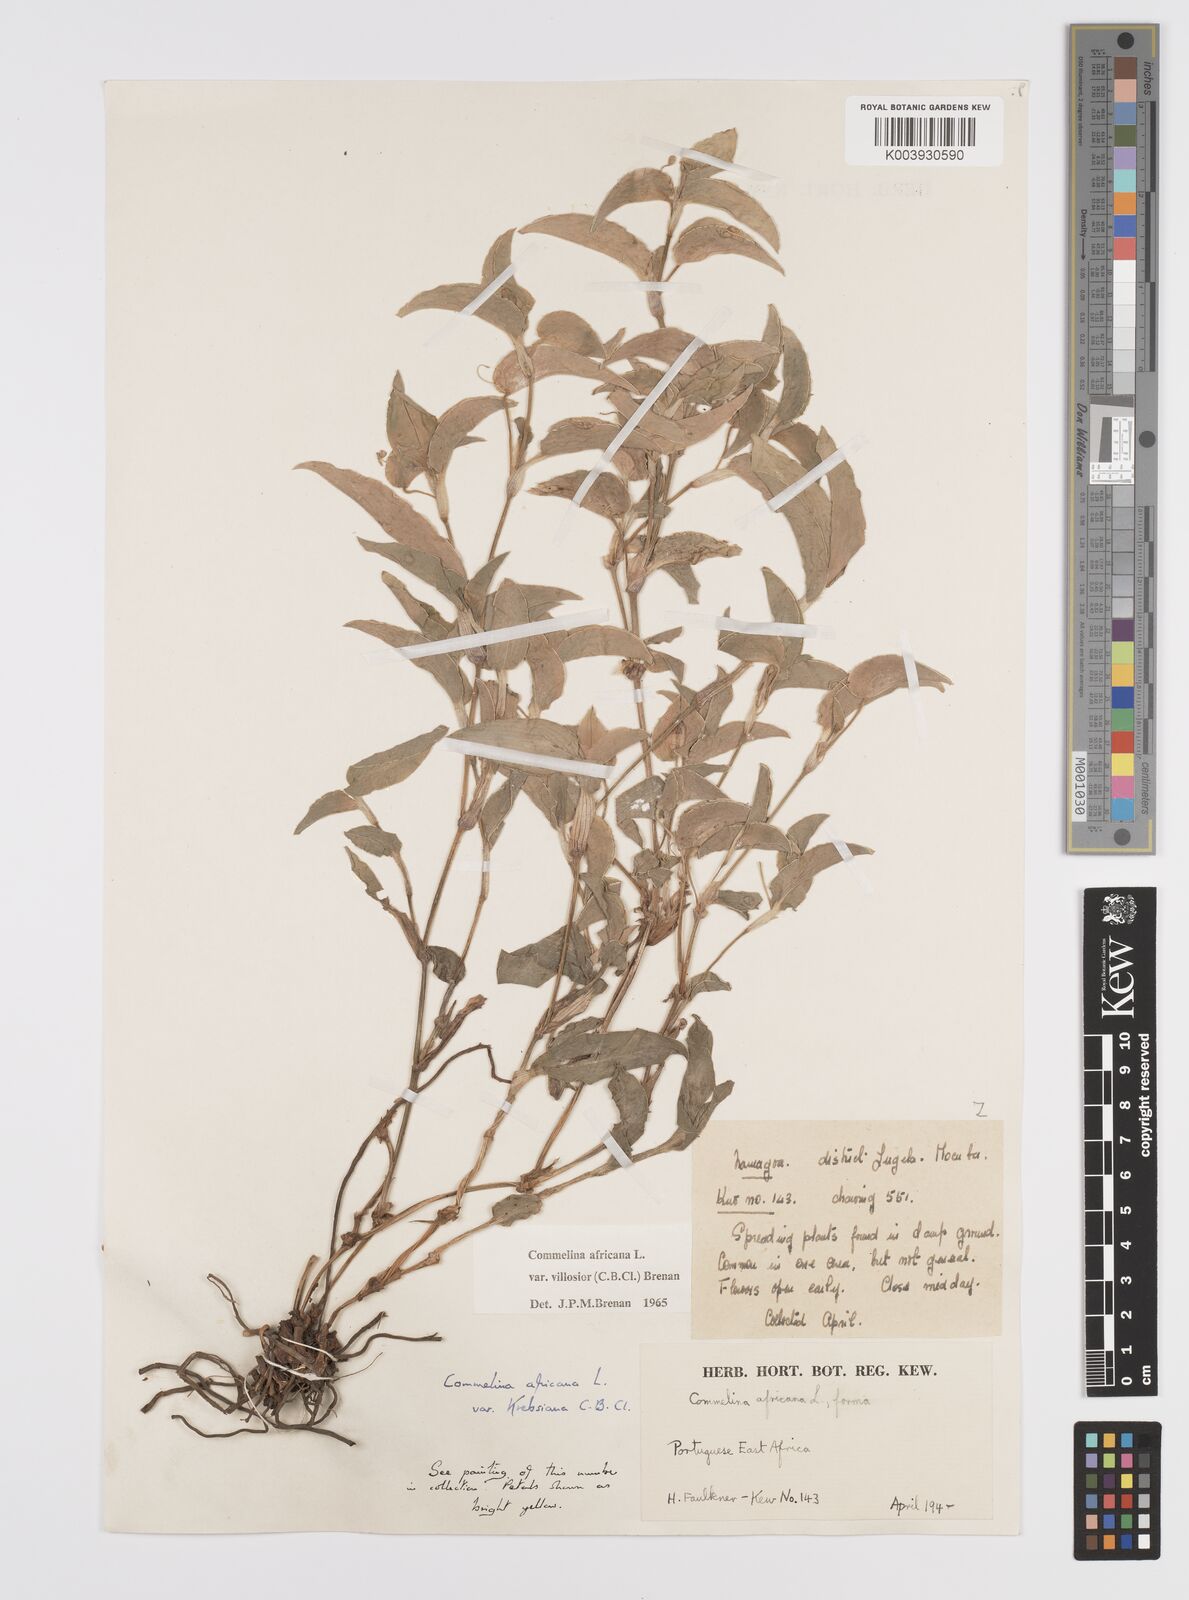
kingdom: Plantae
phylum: Tracheophyta
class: Liliopsida
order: Commelinales
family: Commelinaceae
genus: Commelina
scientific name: Commelina africana
